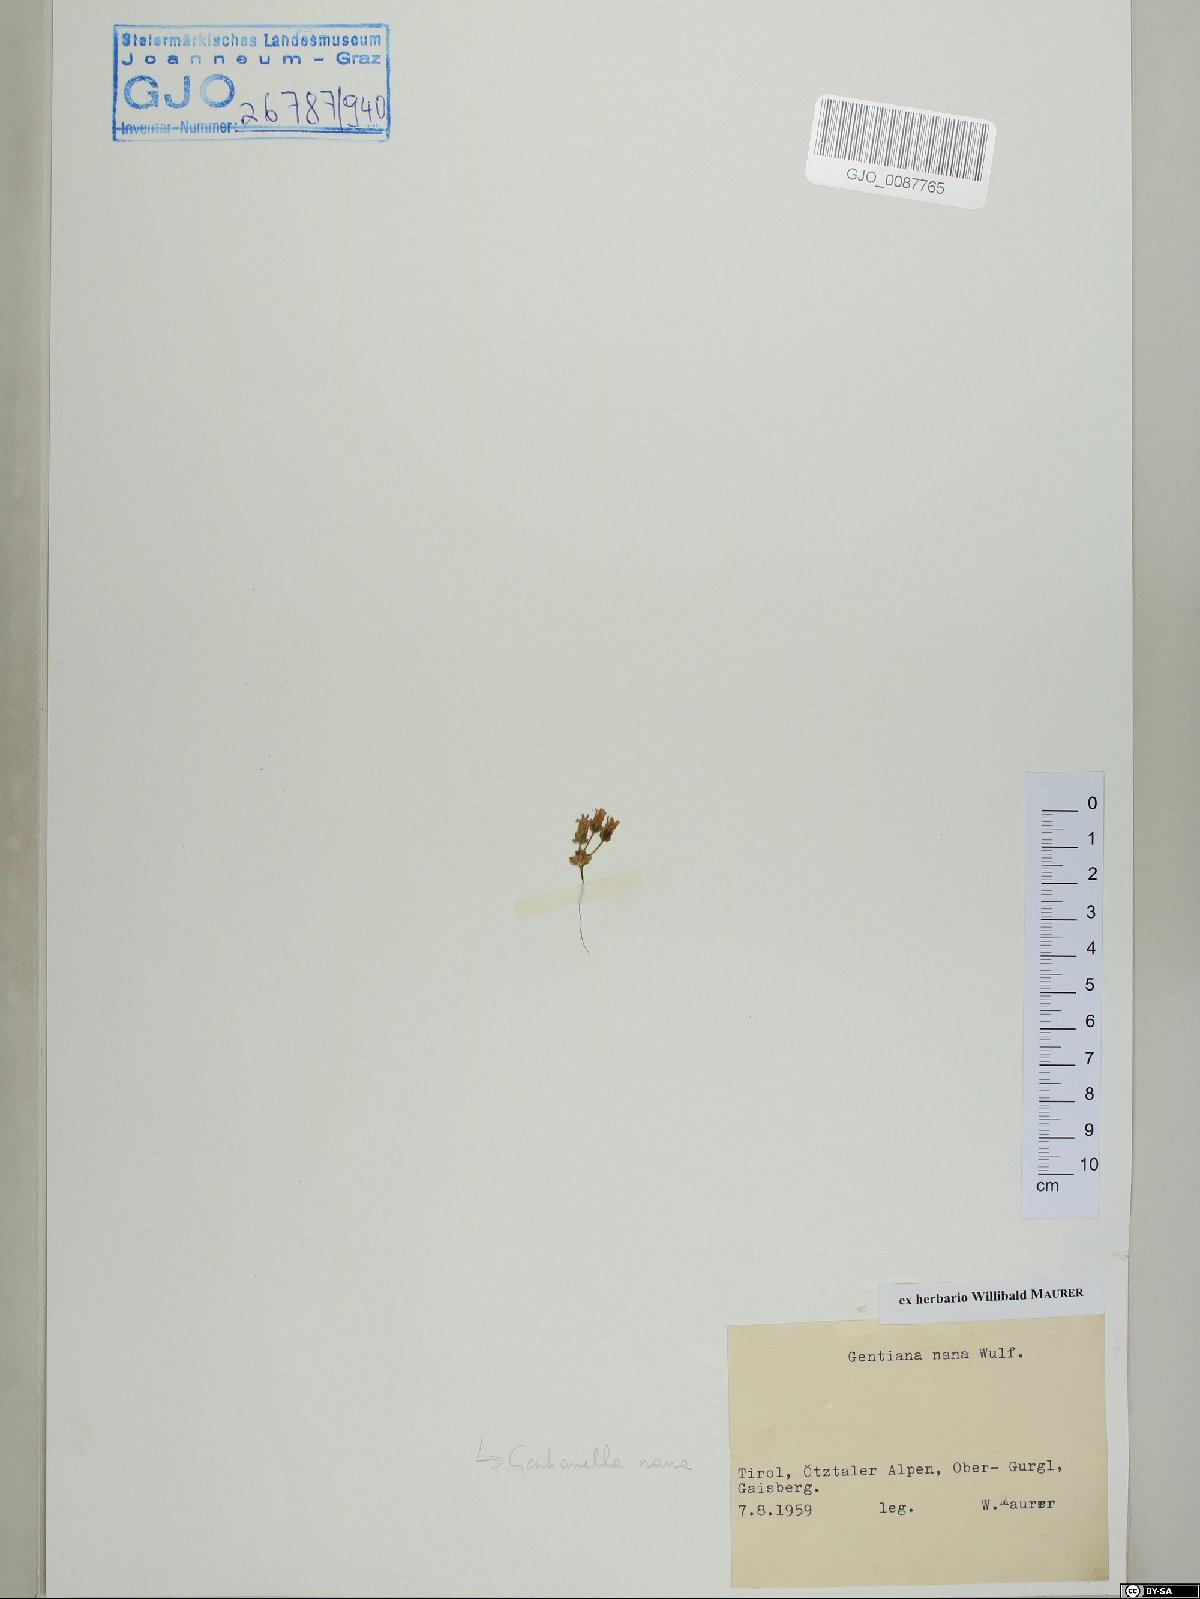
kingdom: Plantae
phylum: Tracheophyta
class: Magnoliopsida
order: Gentianales
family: Gentianaceae
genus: Comastoma
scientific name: Comastoma nanum
